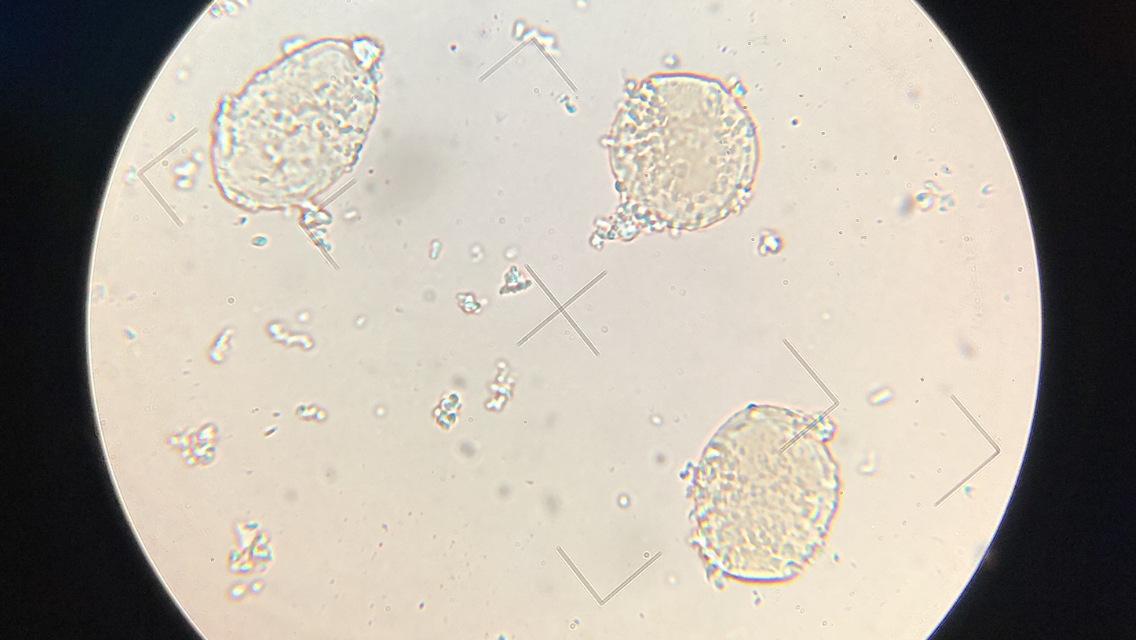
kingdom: Fungi
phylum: Basidiomycota
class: Pucciniomycetes
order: Pucciniales
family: Pucciniastraceae
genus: Thekopsora
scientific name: Thekopsora areolata
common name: grankogle-nålerust
